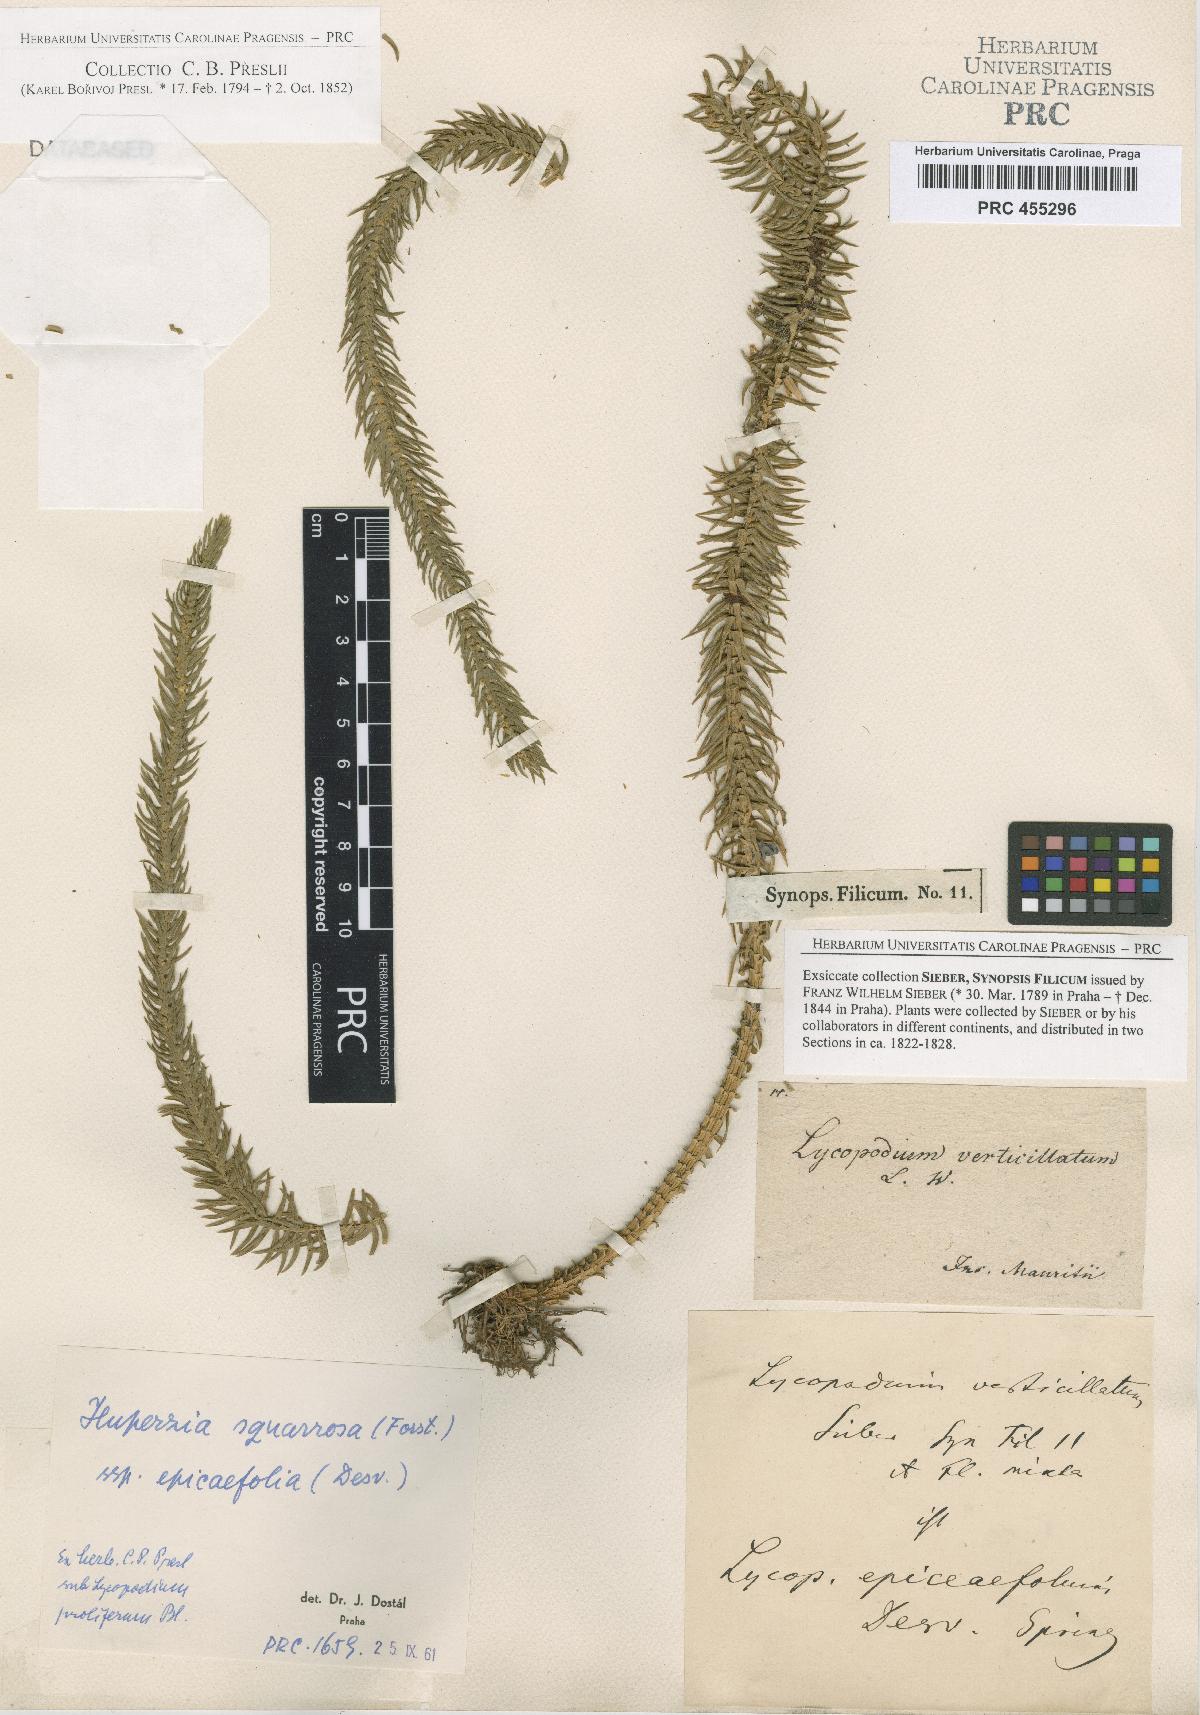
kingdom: Plantae
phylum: Tracheophyta
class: Lycopodiopsida
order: Lycopodiales
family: Lycopodiaceae
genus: Phlegmariurus
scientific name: Phlegmariurus squarrosus
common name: Rock tassel-fern
